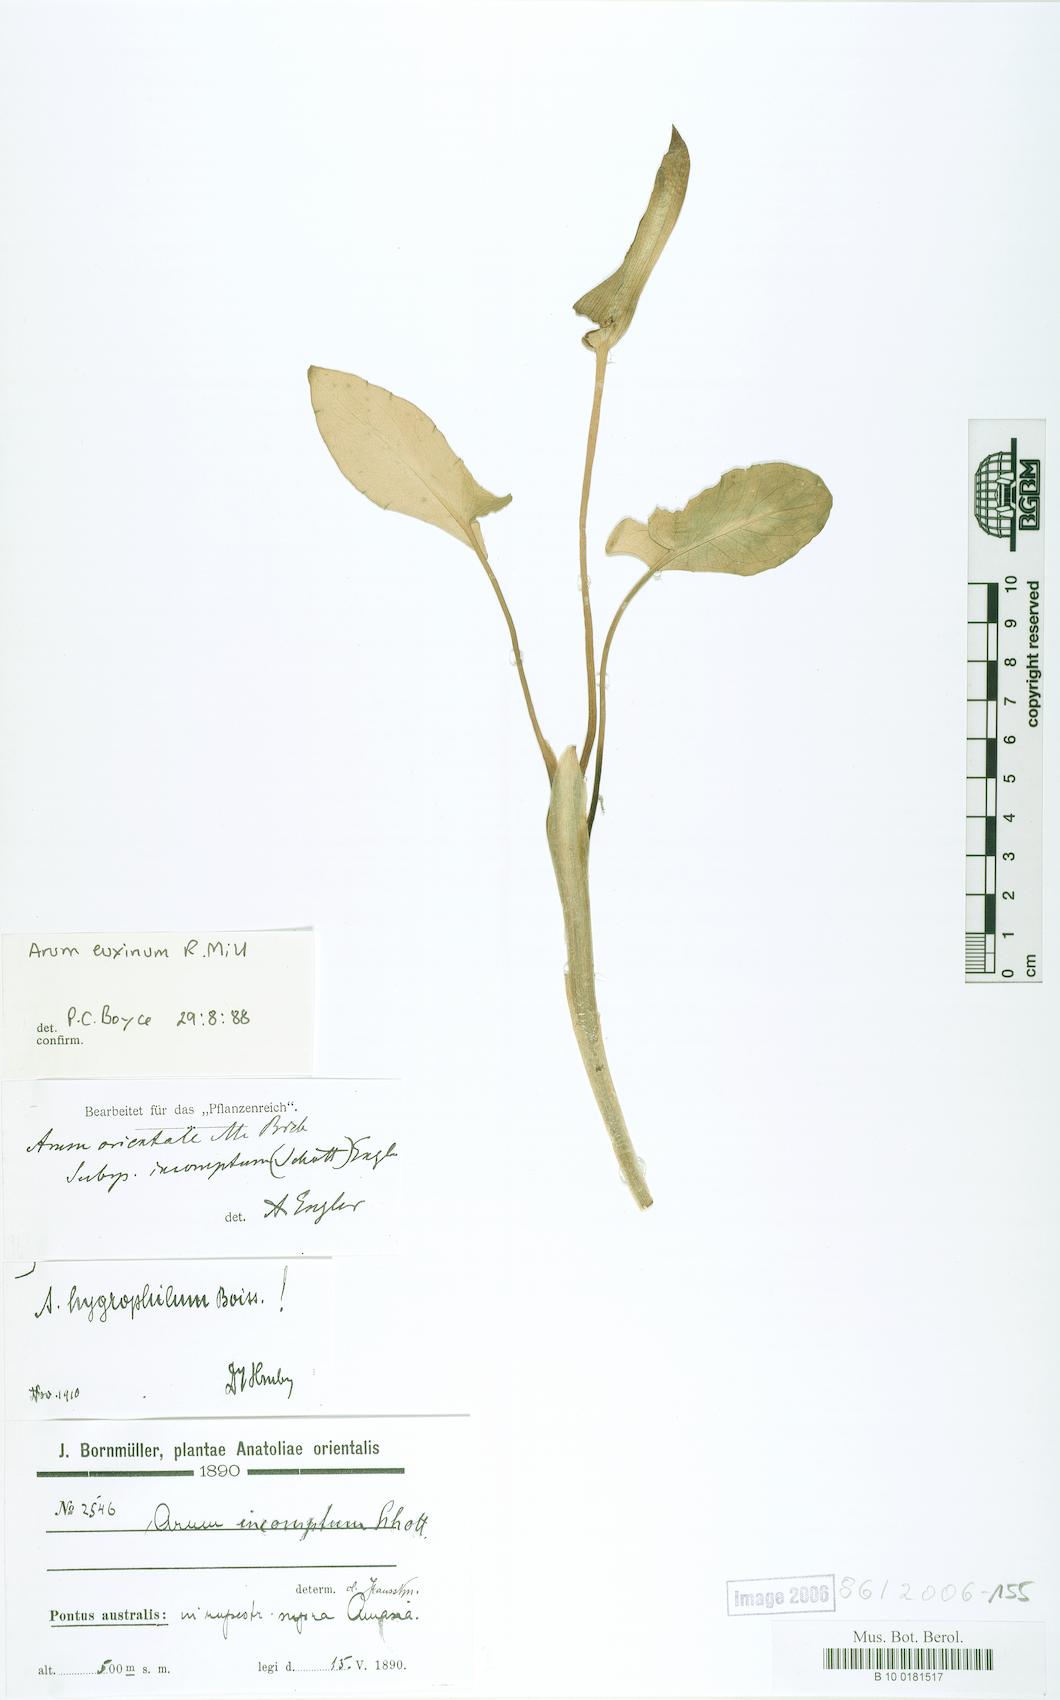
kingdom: Plantae
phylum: Tracheophyta
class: Liliopsida
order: Alismatales
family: Araceae
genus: Arum
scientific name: Arum euxinum
